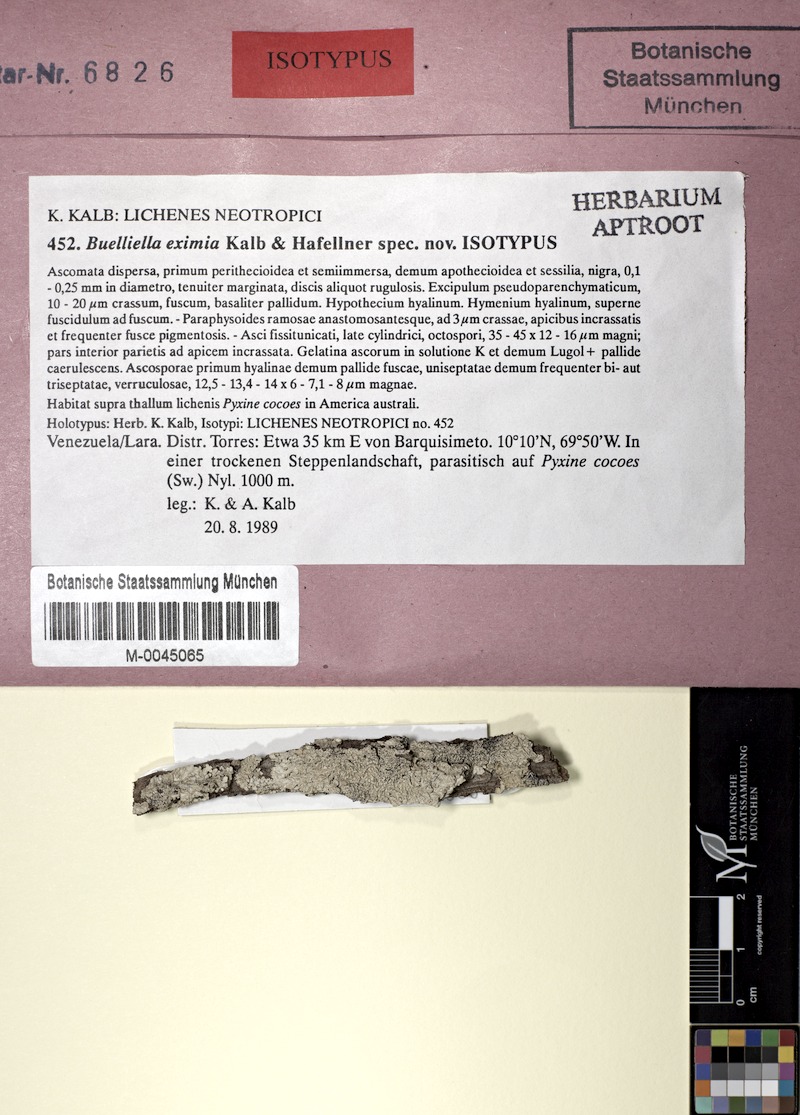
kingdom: Fungi
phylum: Ascomycota
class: Lecanoromycetes
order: Caliciales
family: Caliciaceae
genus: Pyxine
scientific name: Pyxine cocoes
